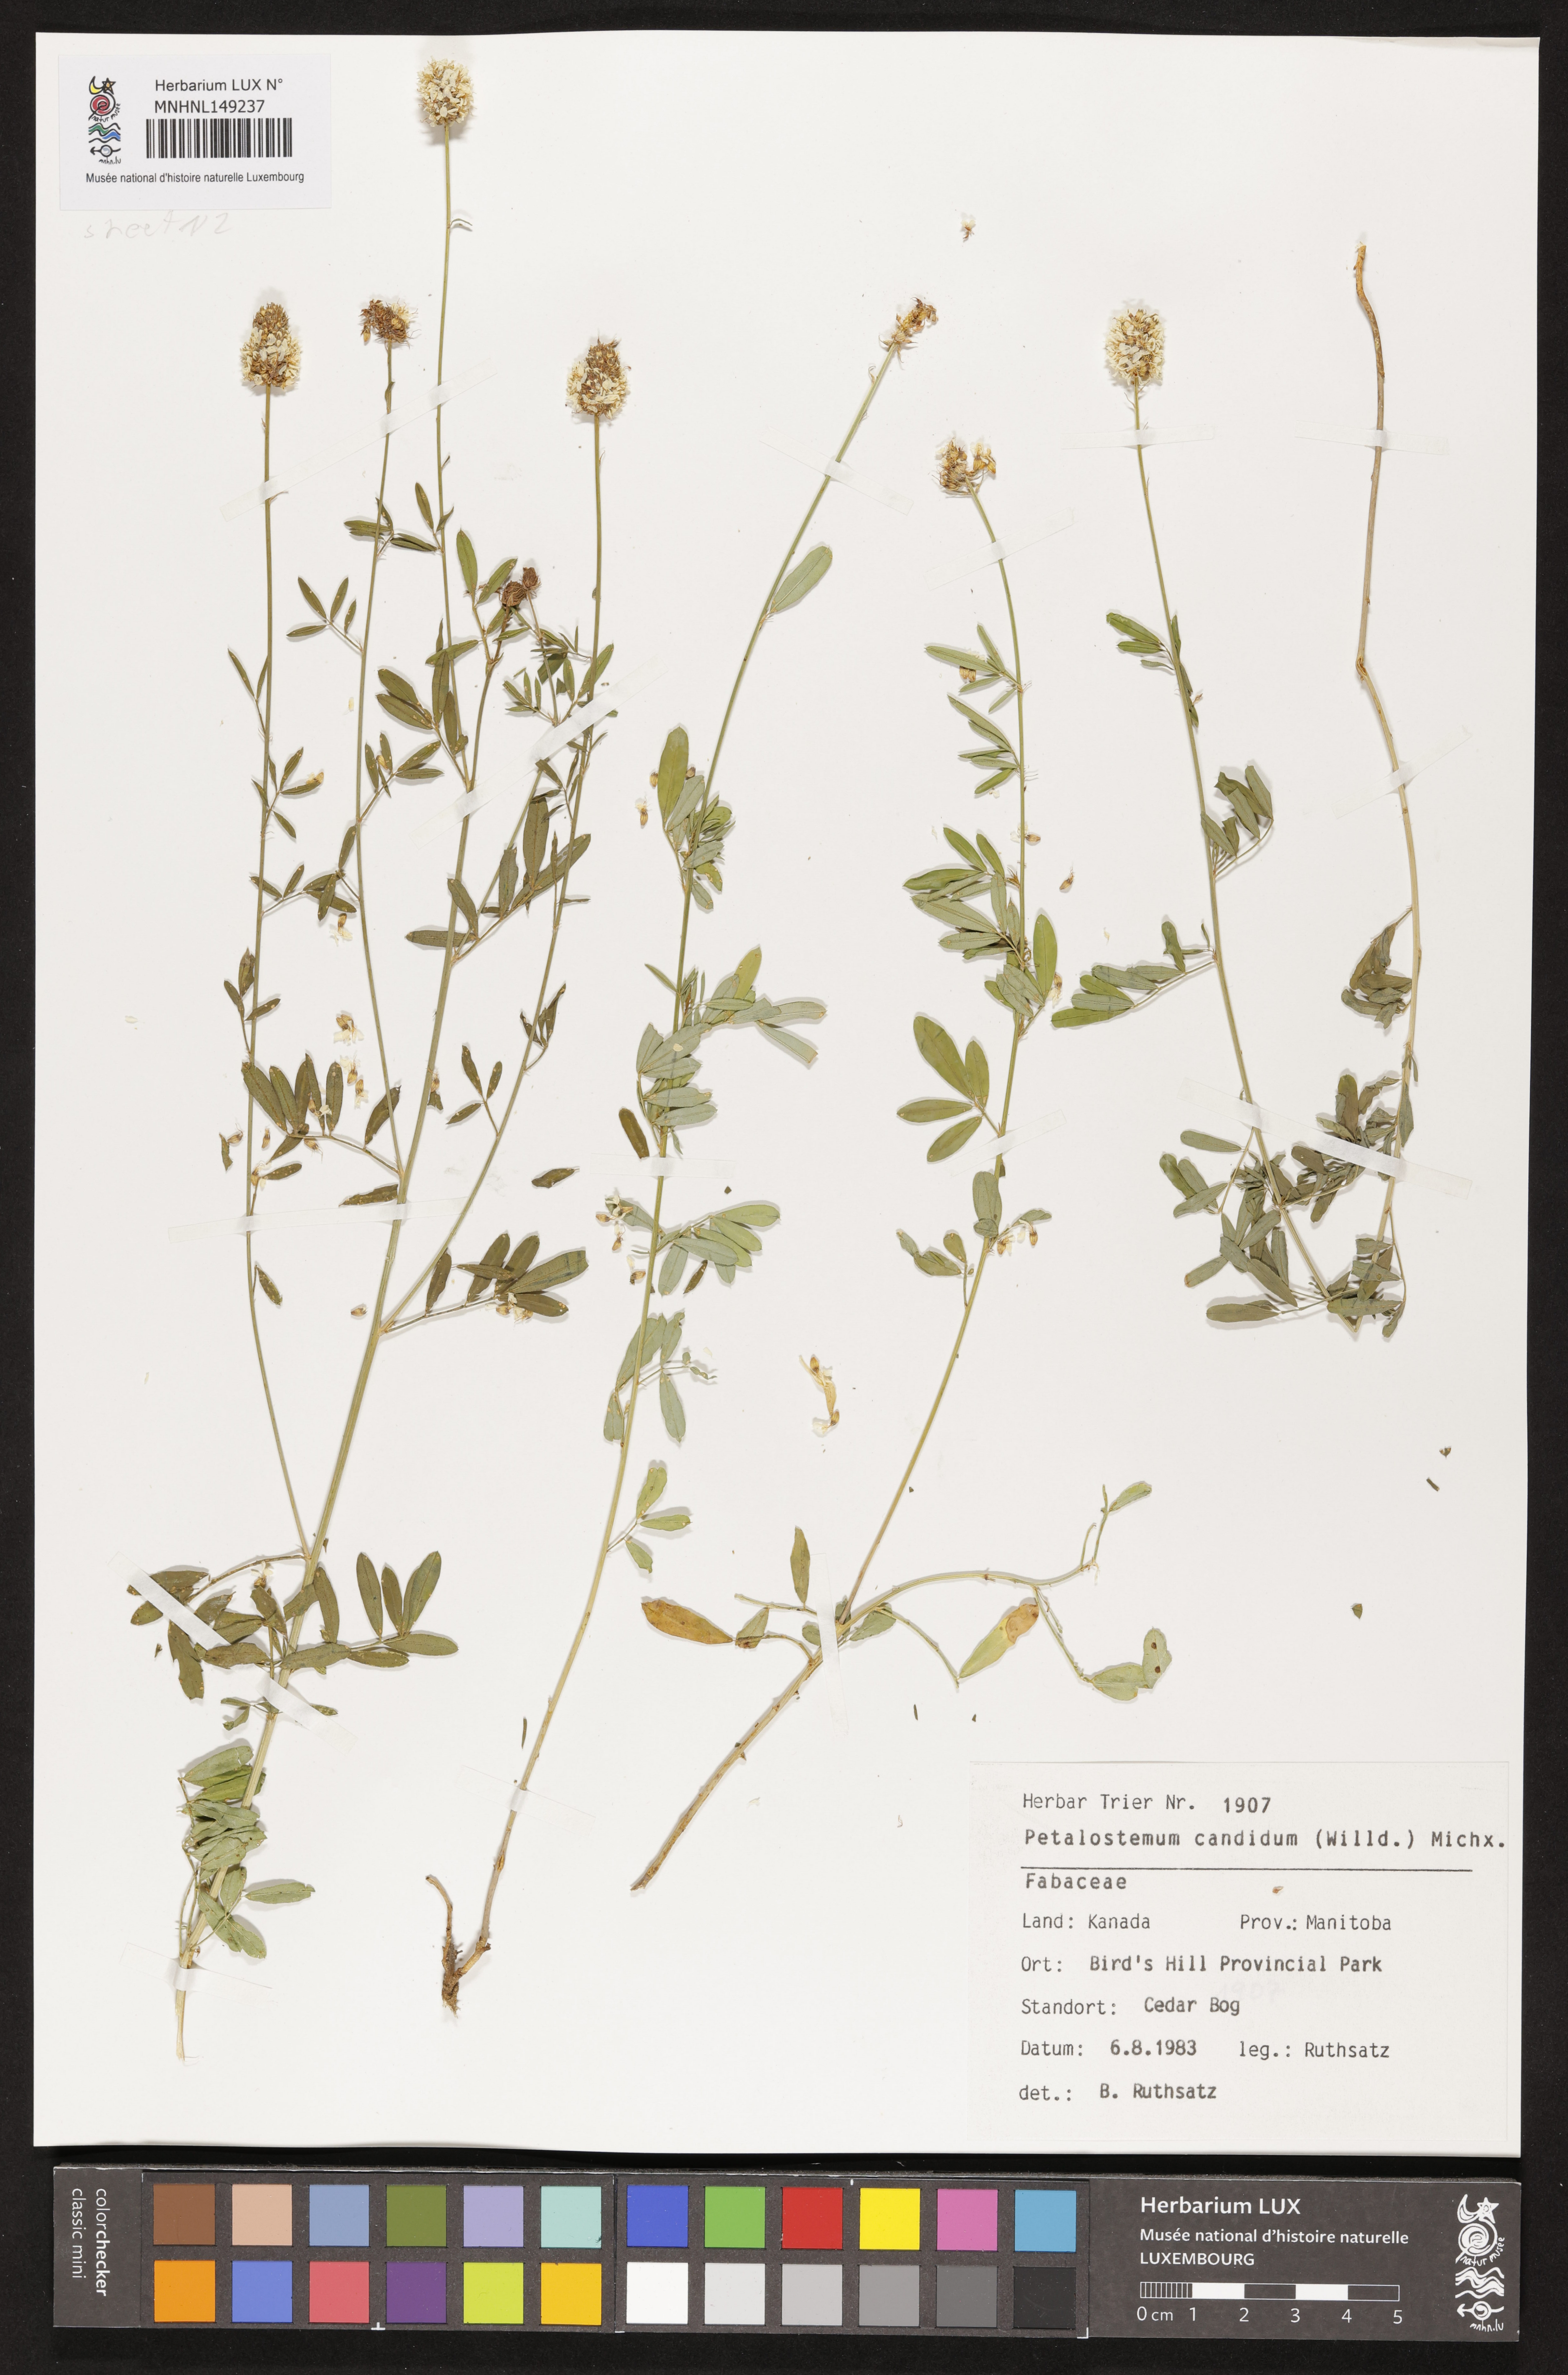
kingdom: Plantae
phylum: Tracheophyta
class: Magnoliopsida
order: Fabales
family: Fabaceae
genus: Dalea
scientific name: Dalea candida
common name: White prairie-clover
